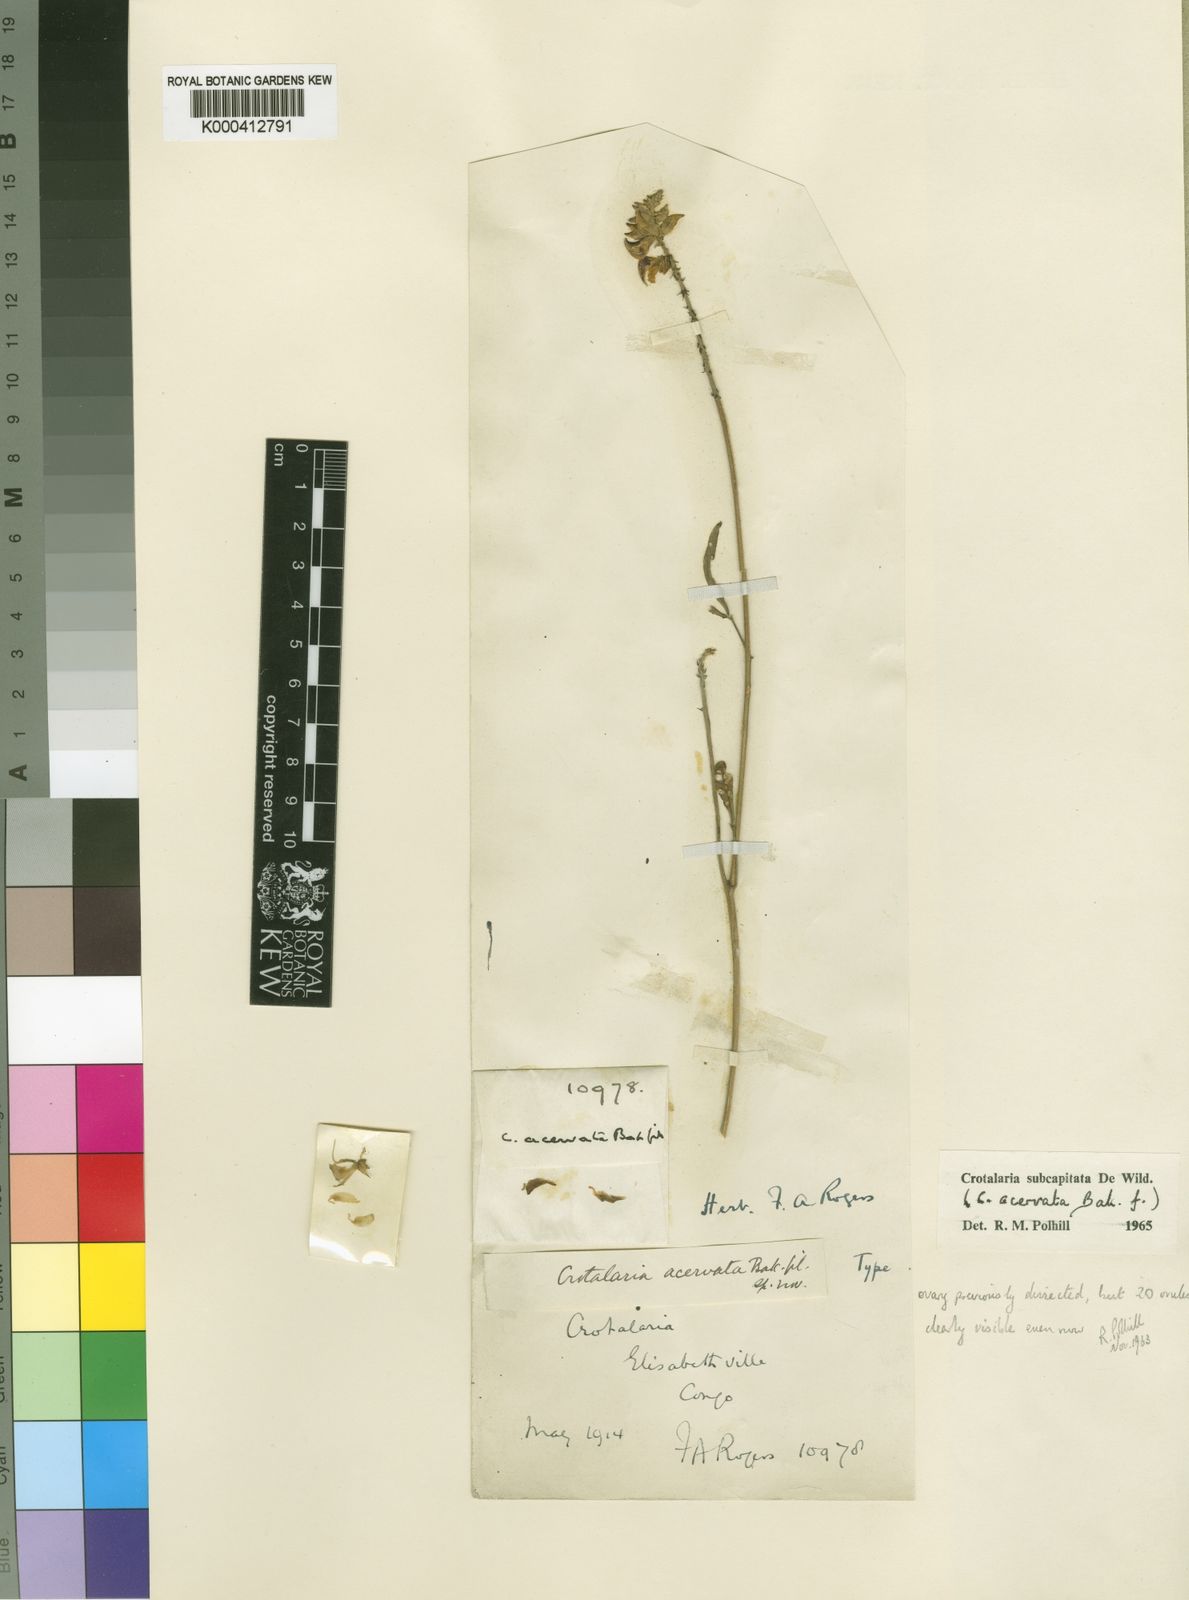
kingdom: Plantae
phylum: Tracheophyta
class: Magnoliopsida
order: Fabales
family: Fabaceae
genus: Crotalaria
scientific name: Crotalaria subcapitata
